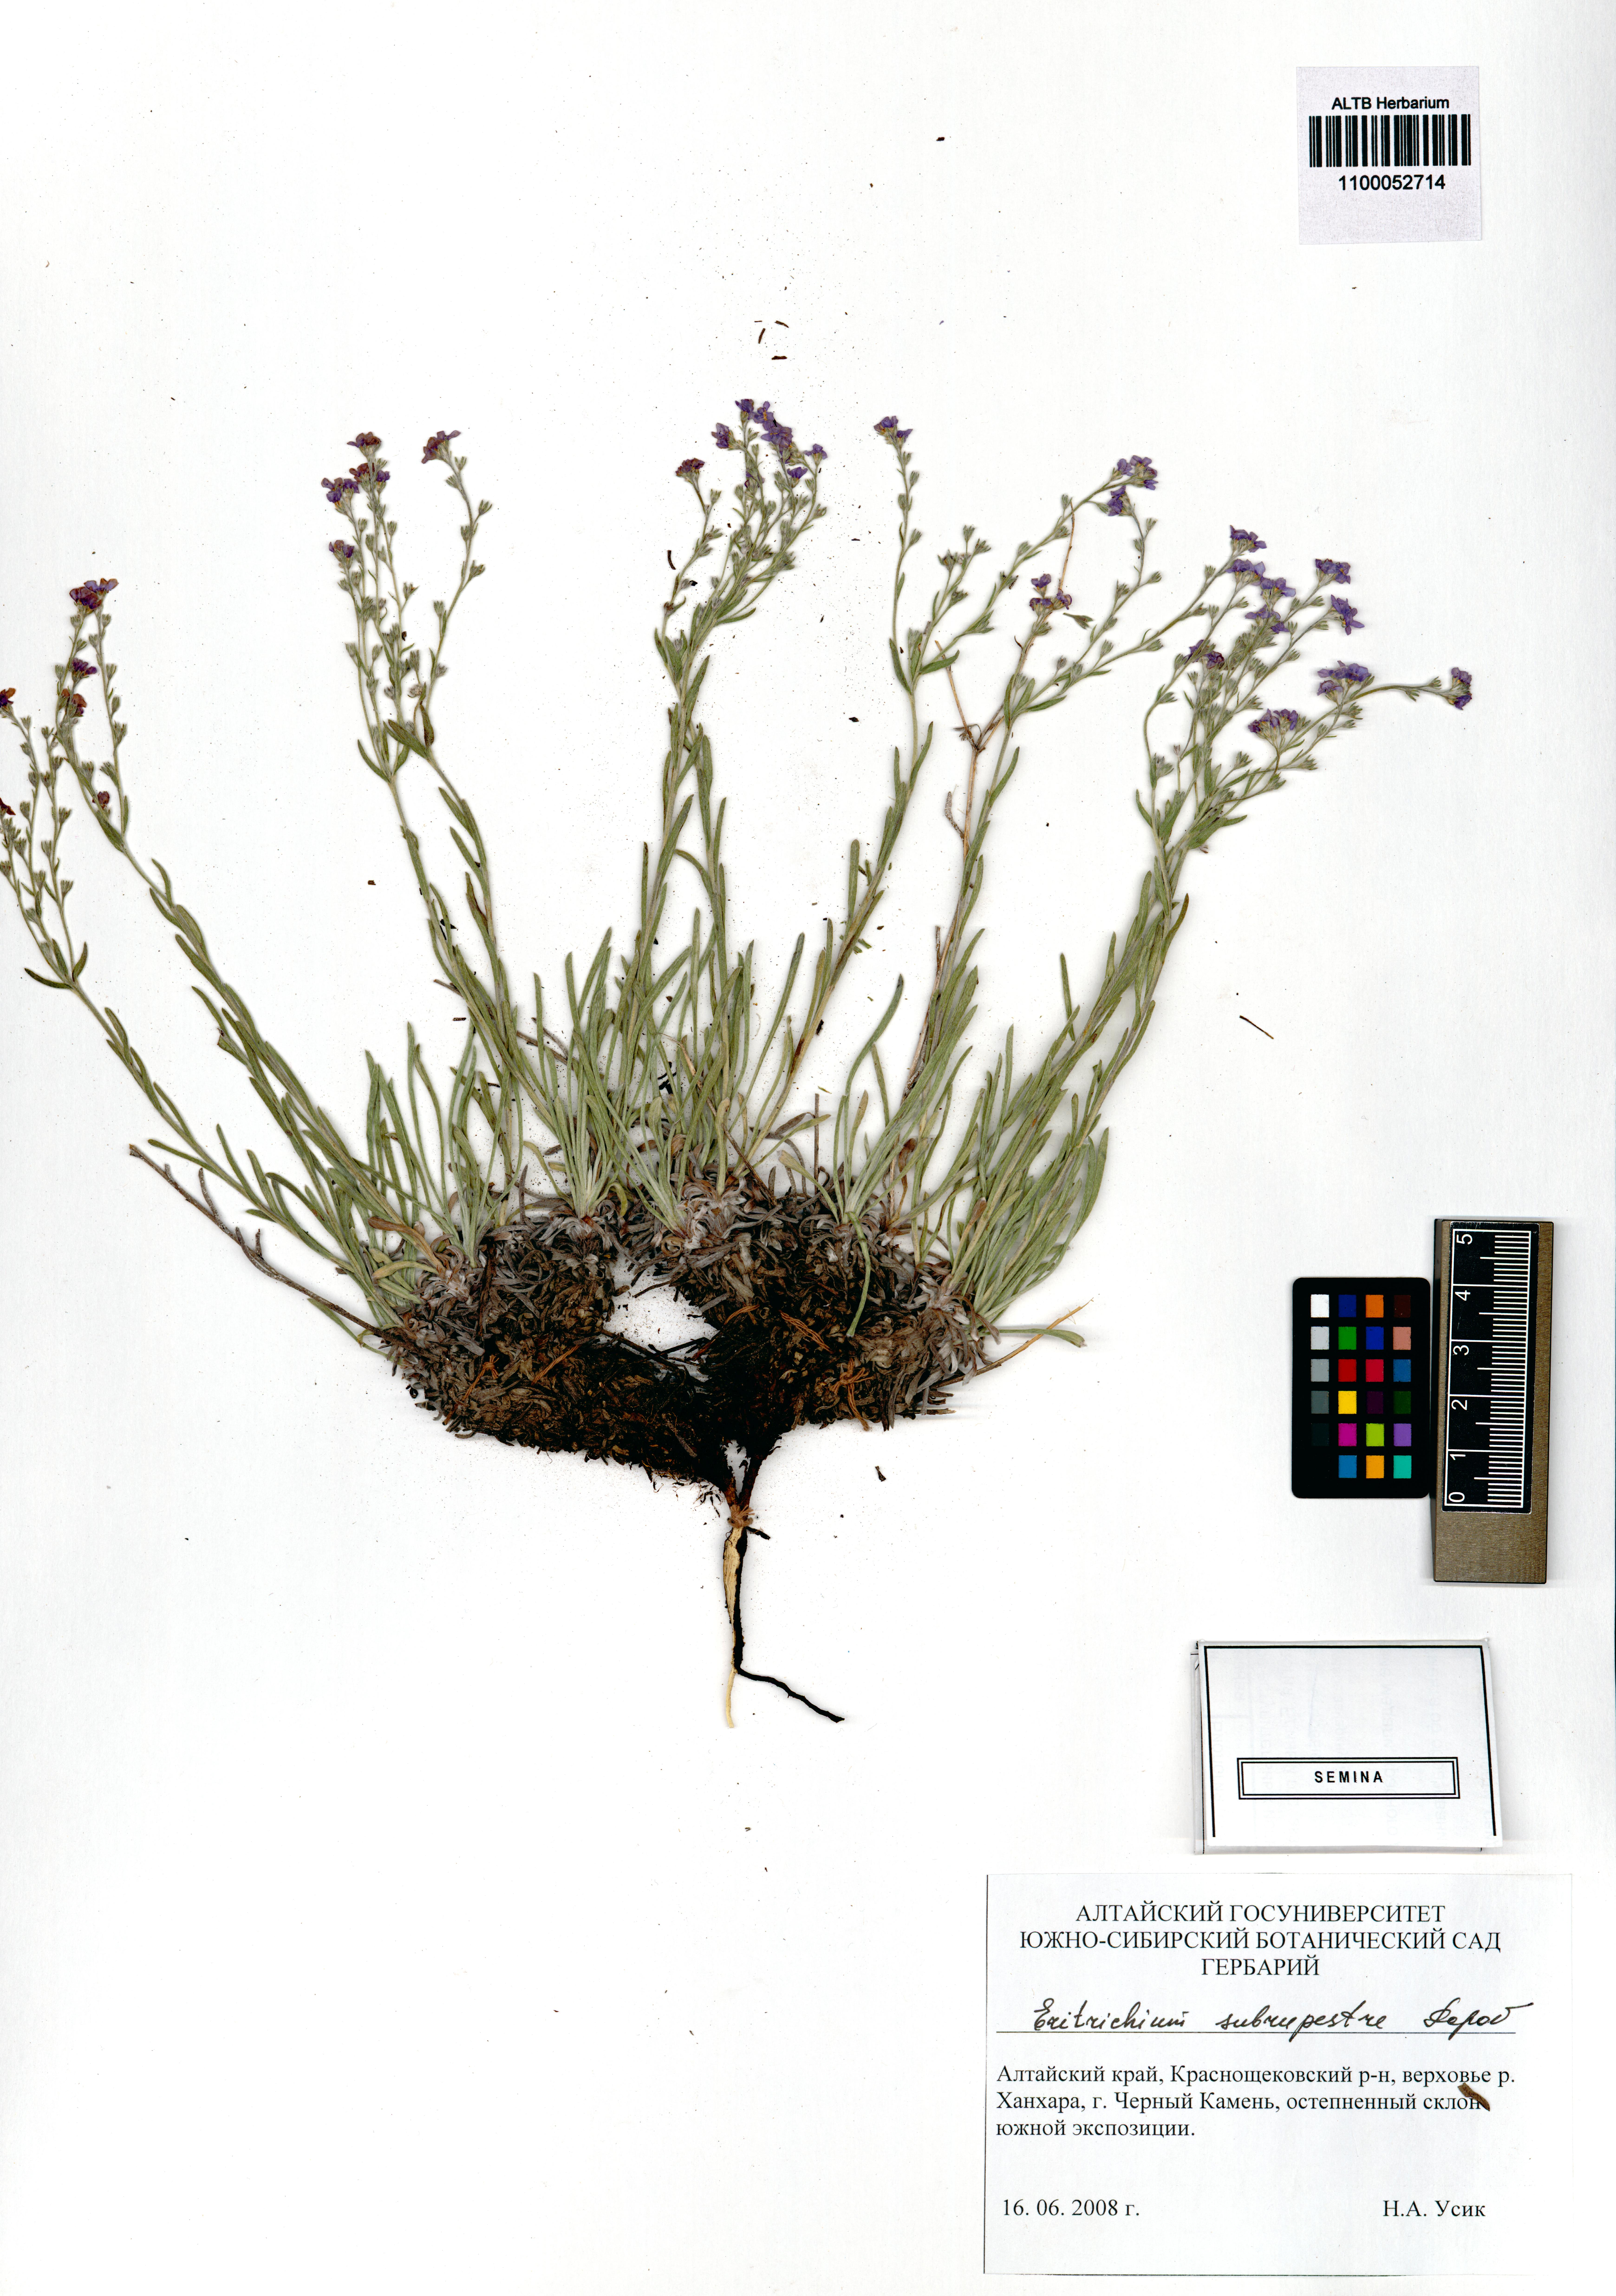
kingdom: Plantae
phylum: Tracheophyta
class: Magnoliopsida
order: Boraginales
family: Boraginaceae
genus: Eritrichium
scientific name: Eritrichium pauciflorum
